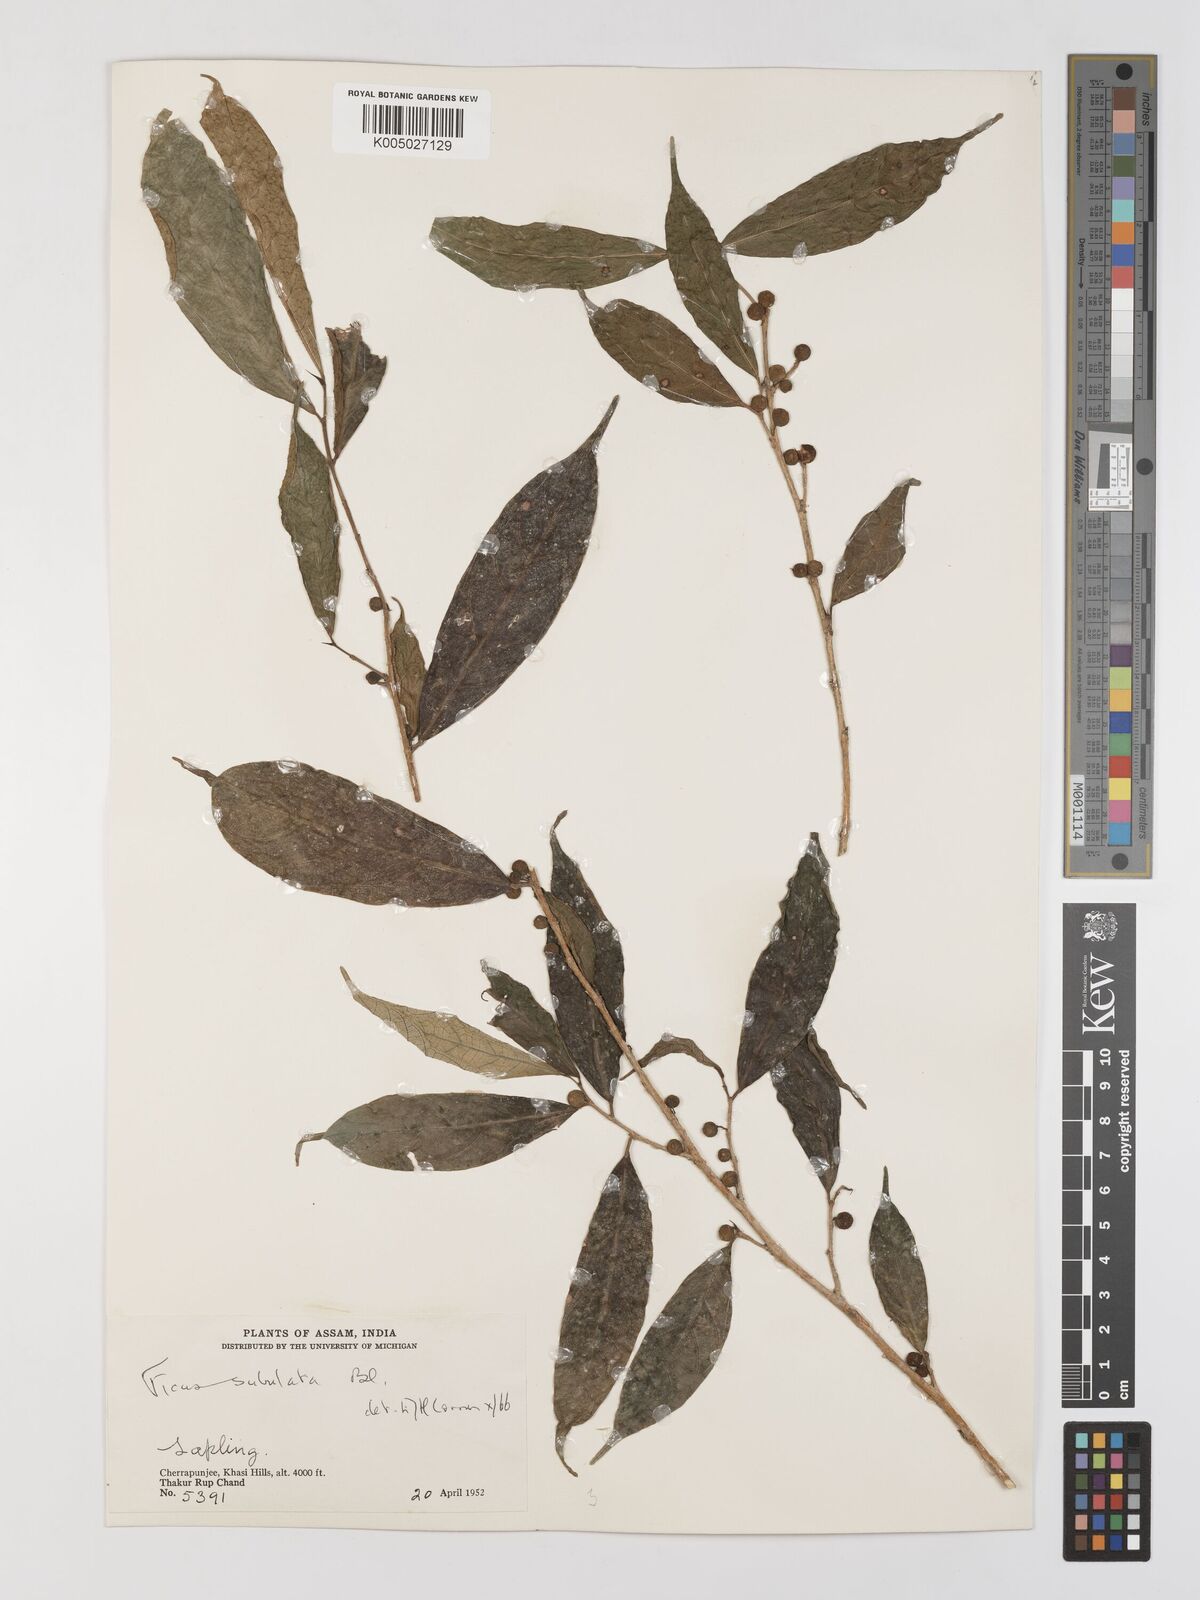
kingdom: Plantae
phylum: Tracheophyta
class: Magnoliopsida
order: Rosales
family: Moraceae
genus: Ficus
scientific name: Ficus subulata
